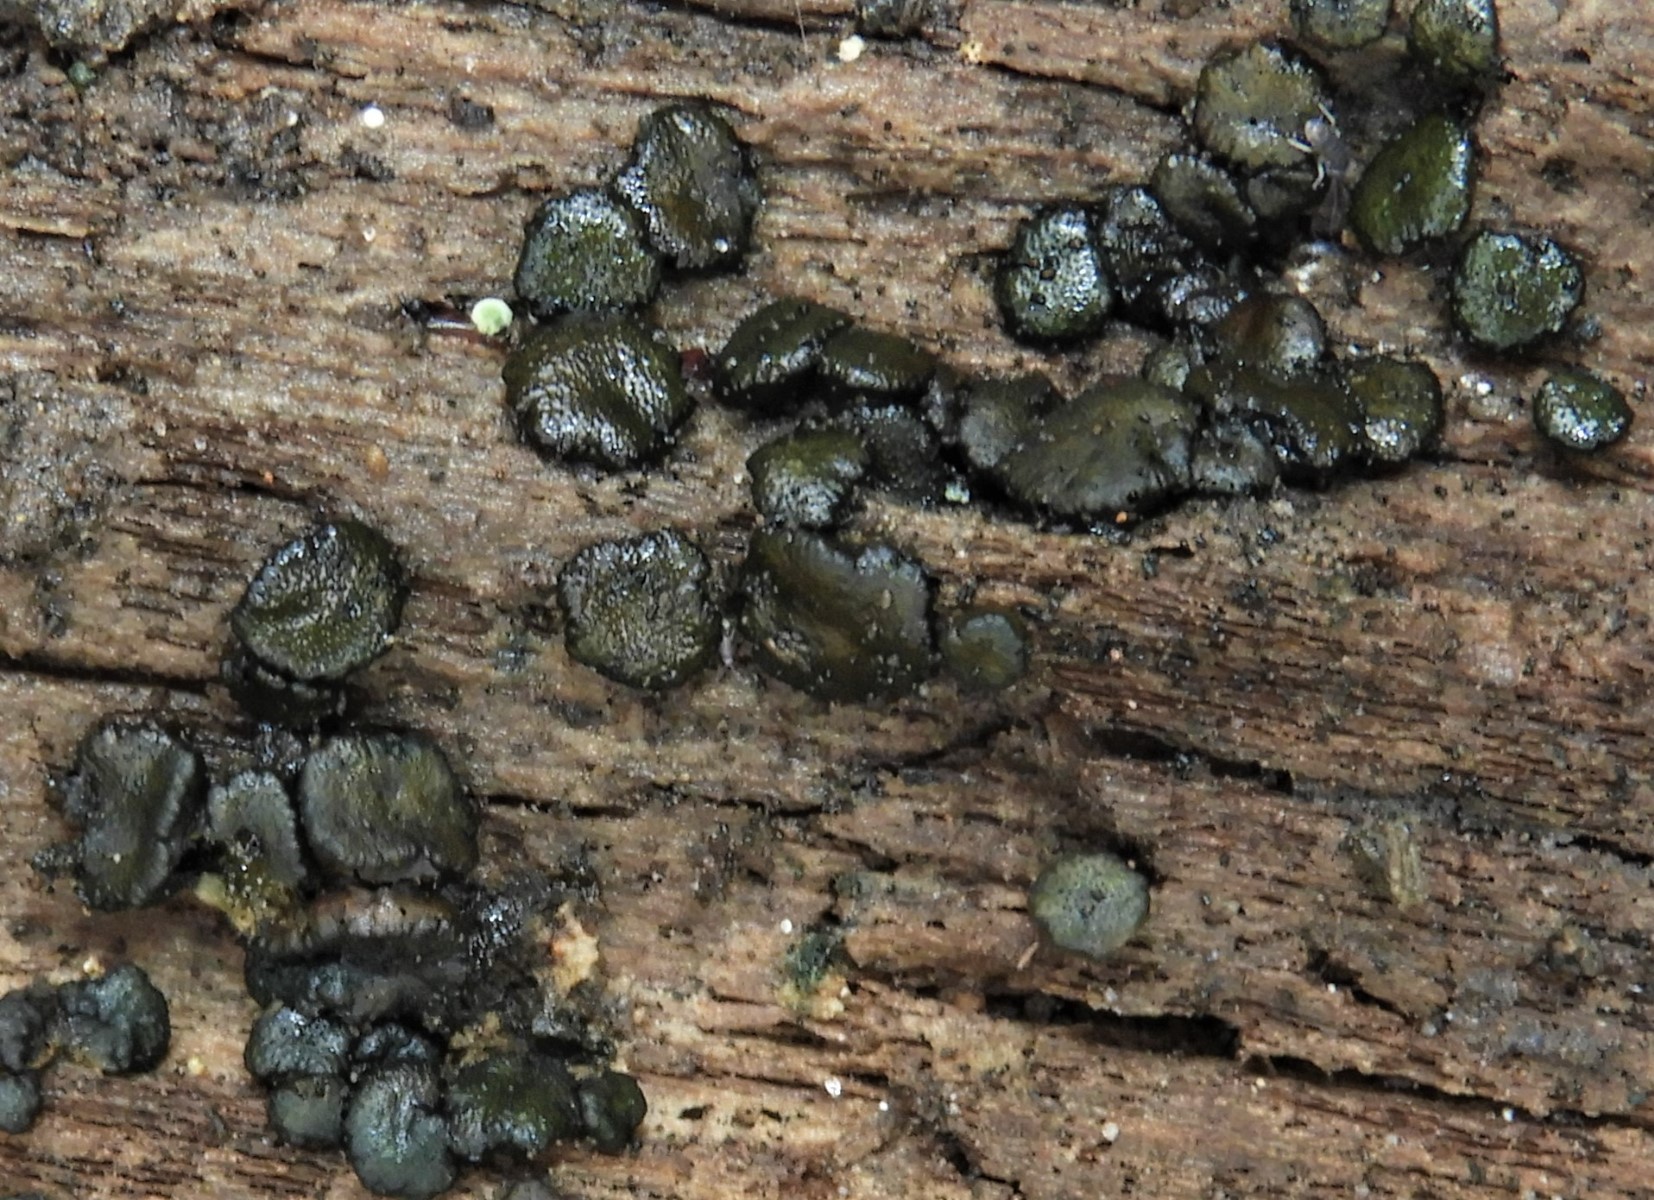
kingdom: Fungi
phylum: Ascomycota
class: Sordariomycetes
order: Hypocreales
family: Hypocreaceae
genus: Trichoderma
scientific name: Trichoderma atrobrunneum
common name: grønsort kødkerne
